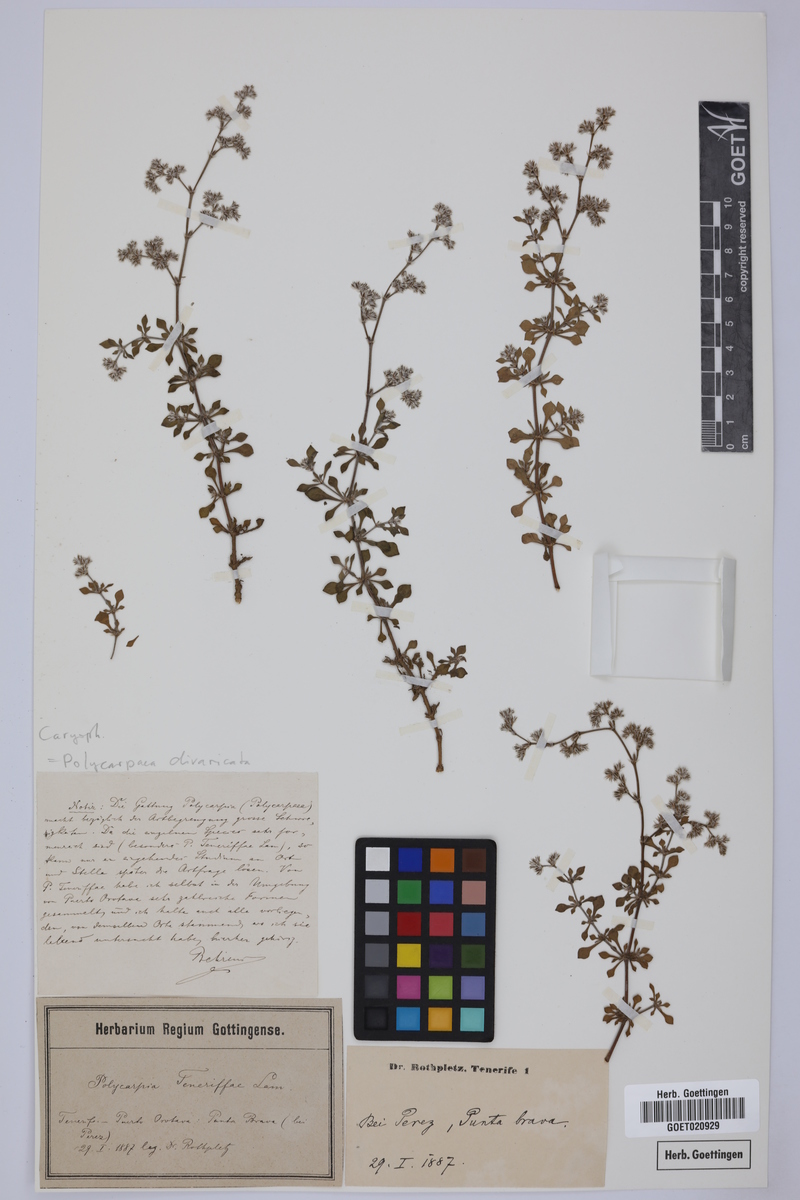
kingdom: Plantae
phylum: Tracheophyta
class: Magnoliopsida
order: Caryophyllales
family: Caryophyllaceae
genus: Polycarpaea
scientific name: Polycarpaea divaricata
